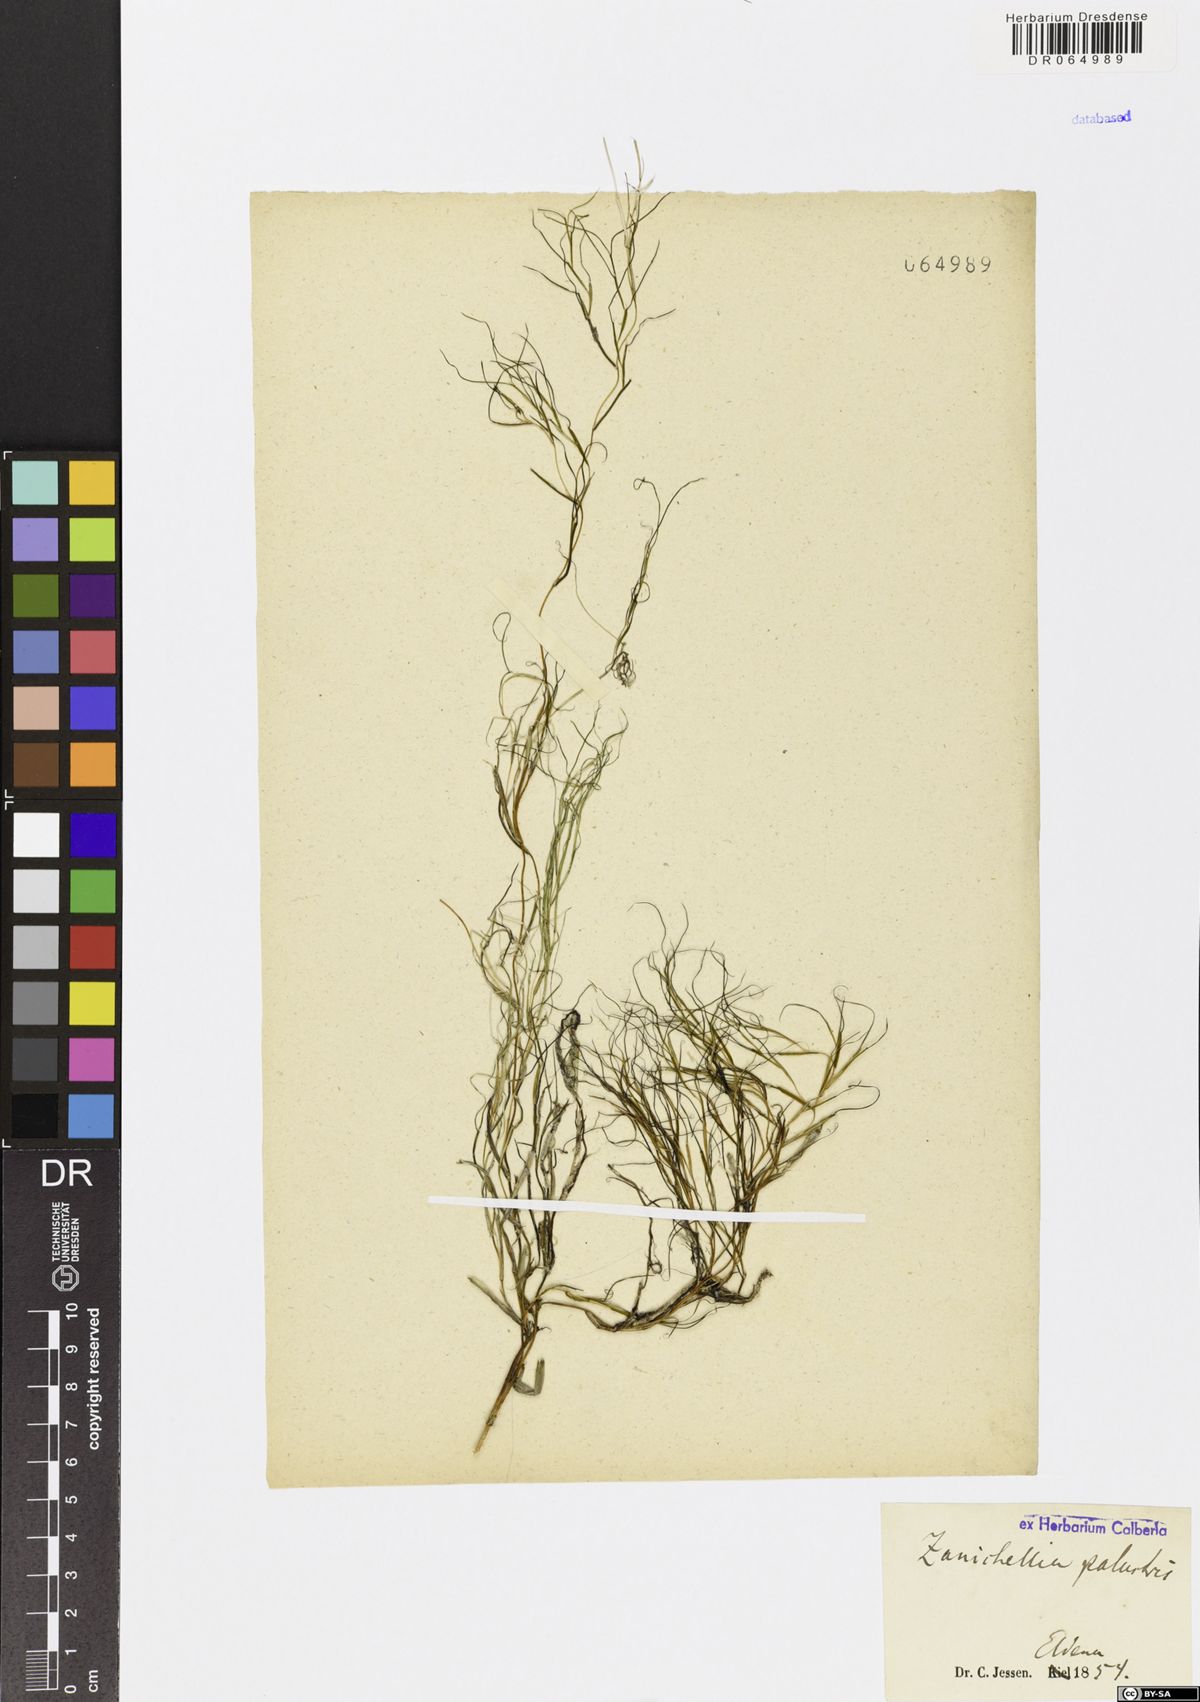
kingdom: Plantae
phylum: Tracheophyta
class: Liliopsida
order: Alismatales
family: Potamogetonaceae
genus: Zannichellia
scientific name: Zannichellia palustris
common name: Horned pondweed
